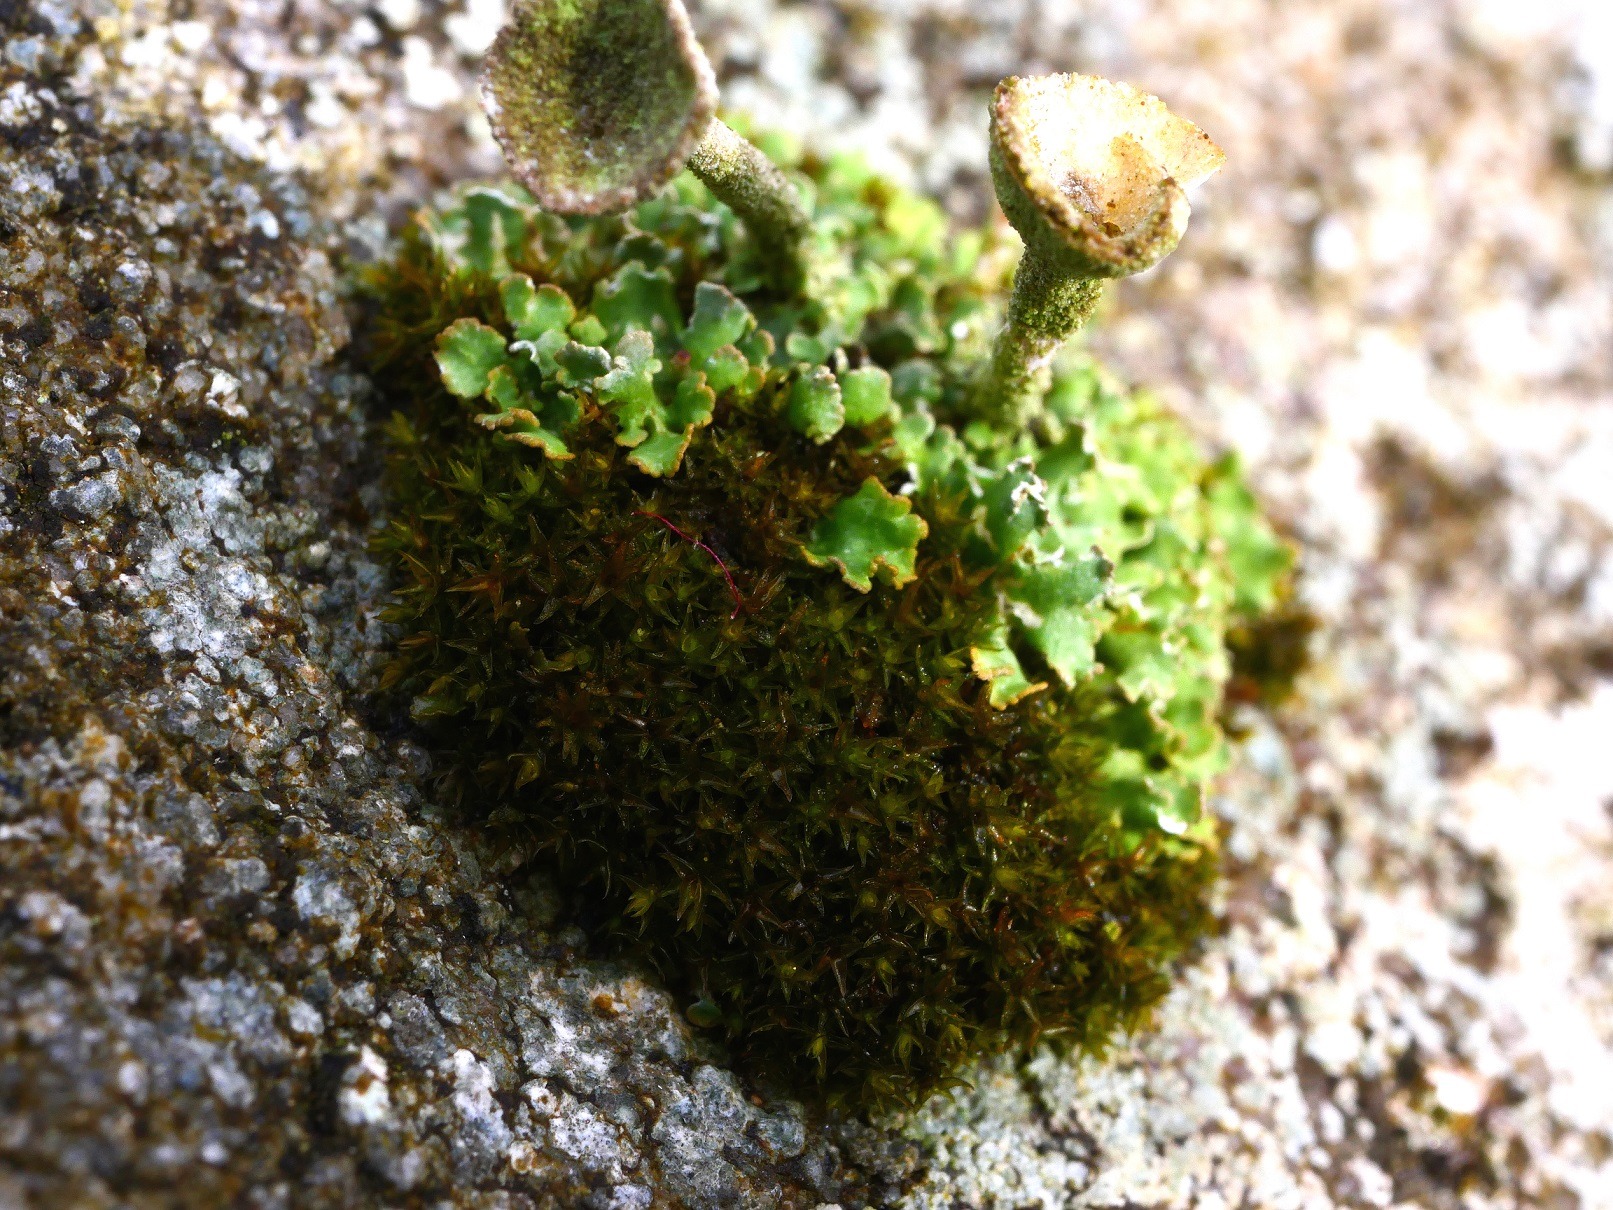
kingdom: Plantae
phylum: Bryophyta
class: Andreaeopsida
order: Andreaeales
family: Andreaeaceae
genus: Andreaea
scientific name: Andreaea rupestris
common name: Lille sortmos
